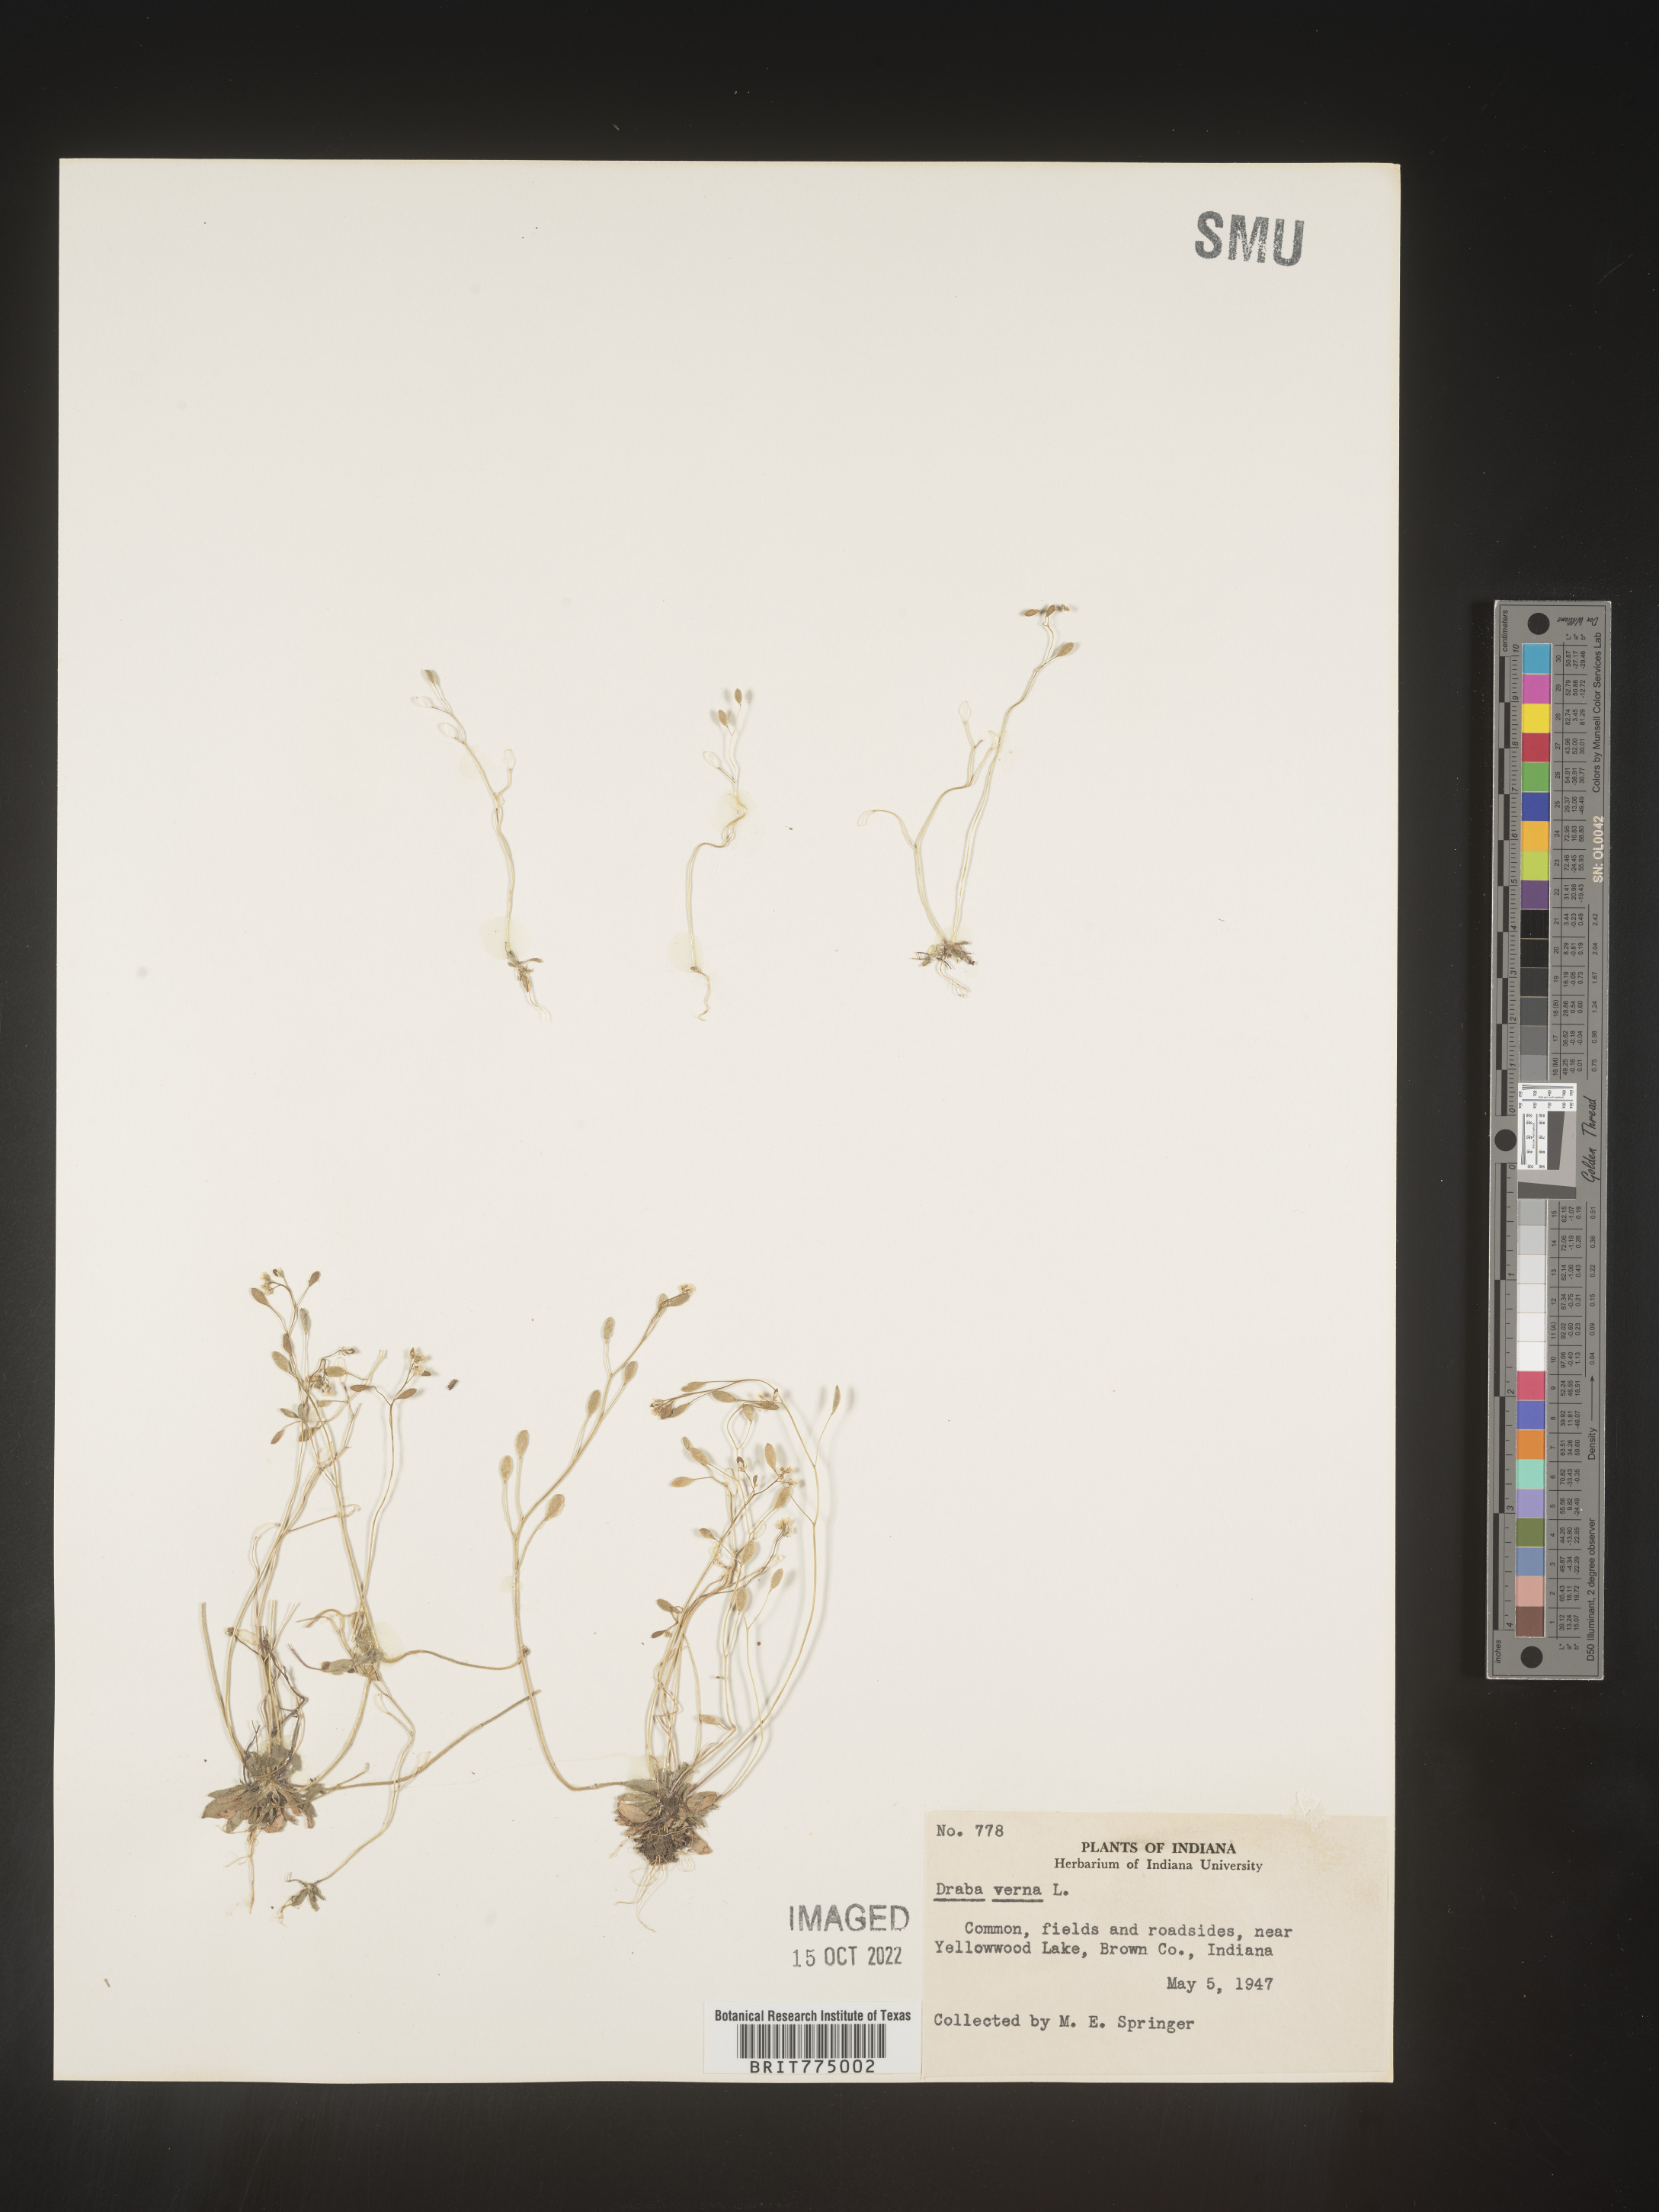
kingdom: Plantae
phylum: Tracheophyta
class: Magnoliopsida
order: Brassicales
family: Brassicaceae
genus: Draba
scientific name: Draba verna
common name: Spring draba
